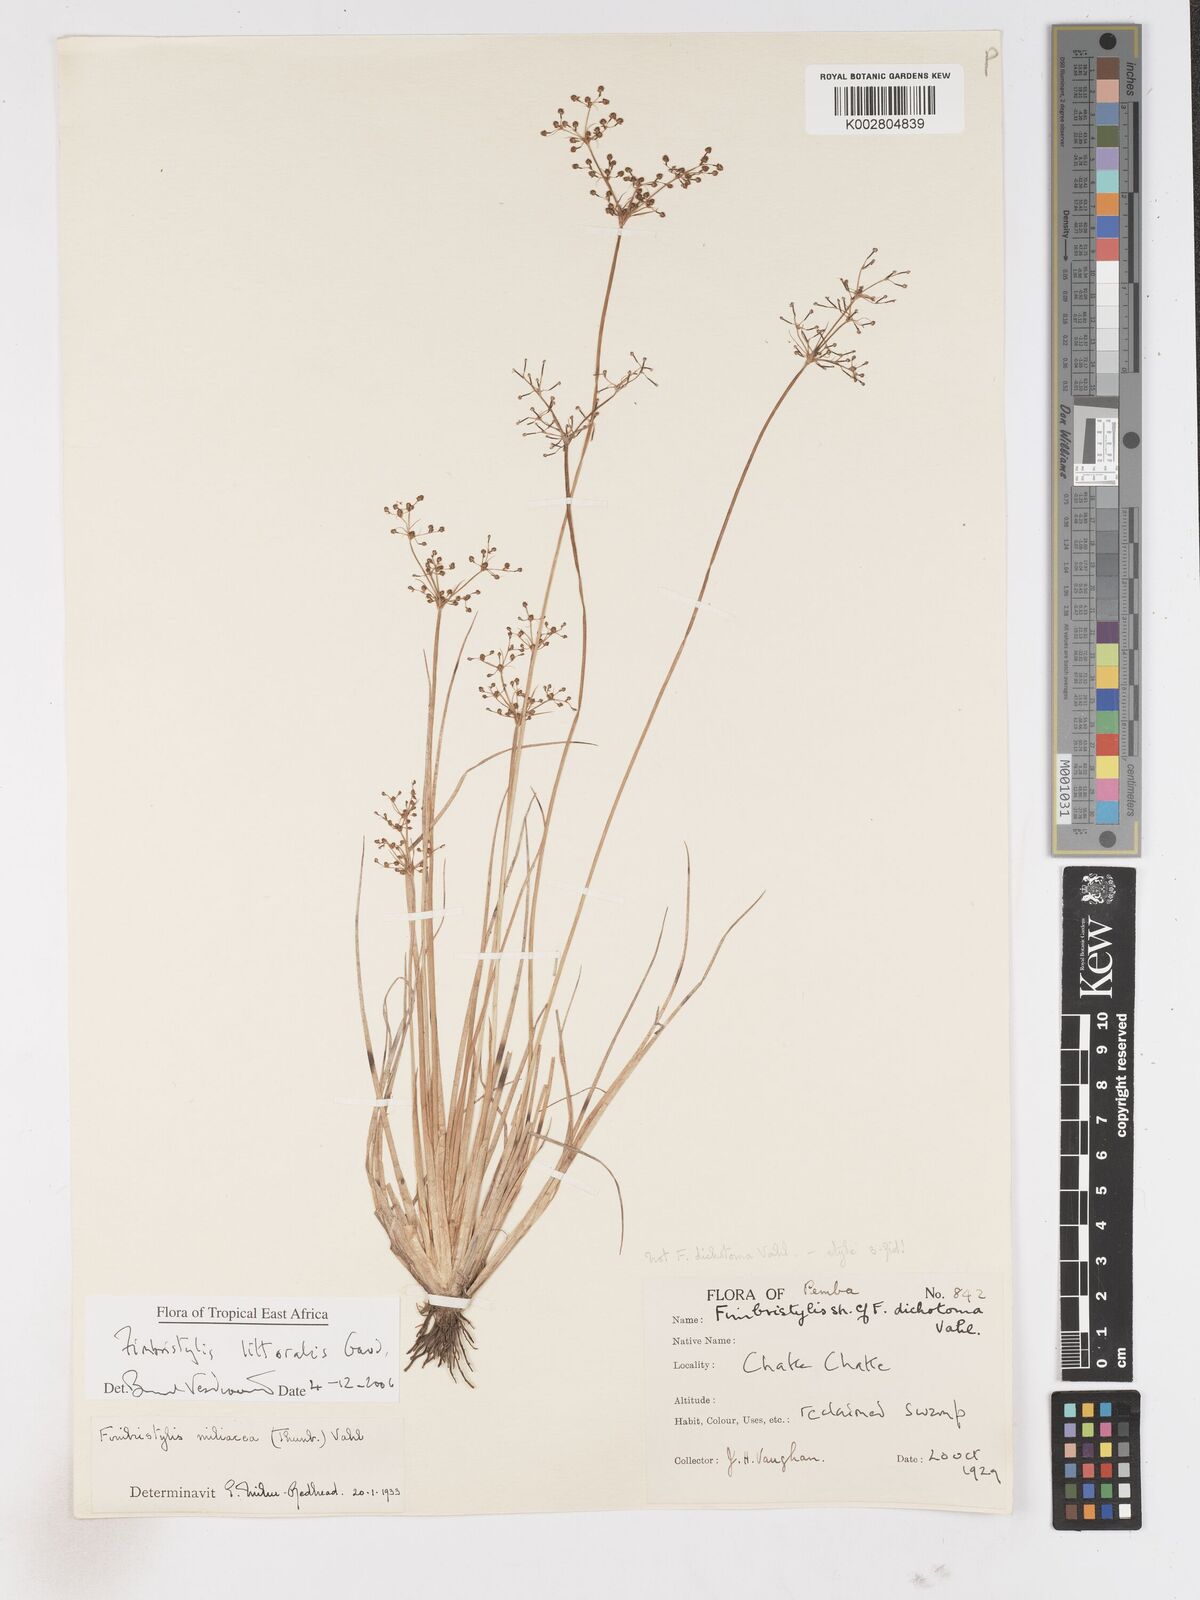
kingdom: Plantae
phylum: Tracheophyta
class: Liliopsida
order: Poales
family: Cyperaceae
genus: Fimbristylis
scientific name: Fimbristylis littoralis
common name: Fimbry
